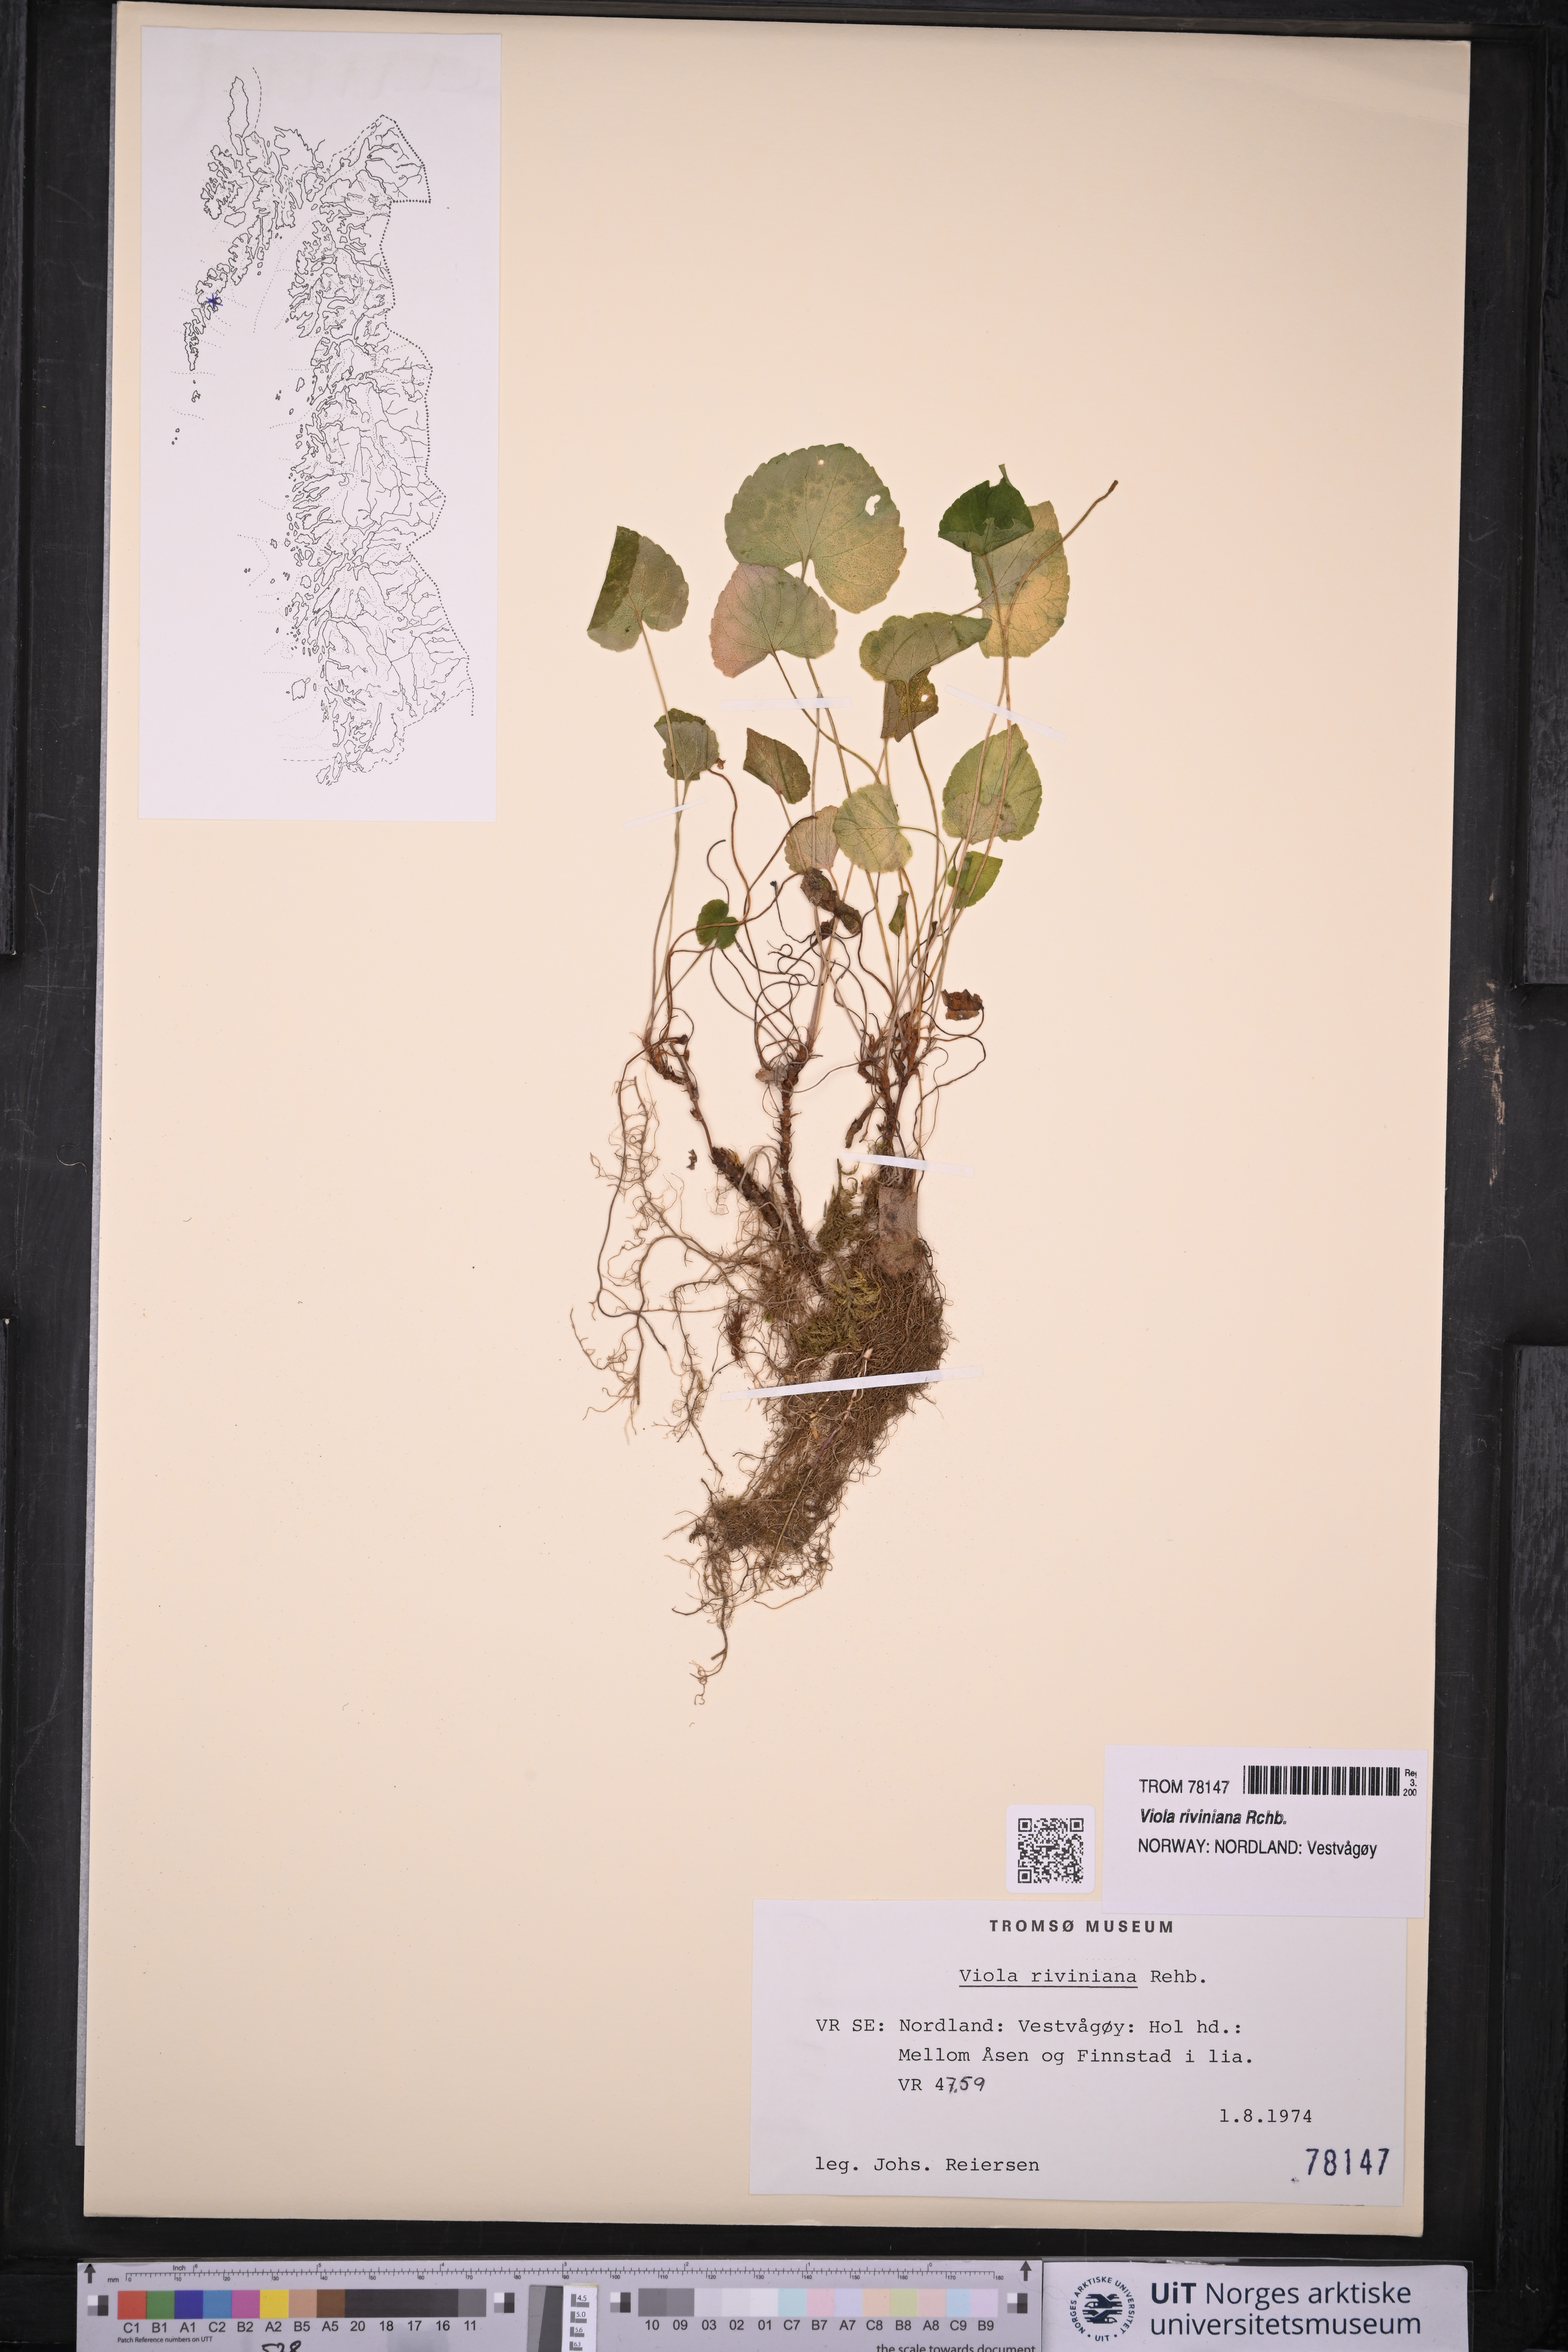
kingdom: Plantae
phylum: Tracheophyta
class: Magnoliopsida
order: Malpighiales
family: Violaceae
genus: Viola
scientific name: Viola riviniana
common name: Common dog-violet
